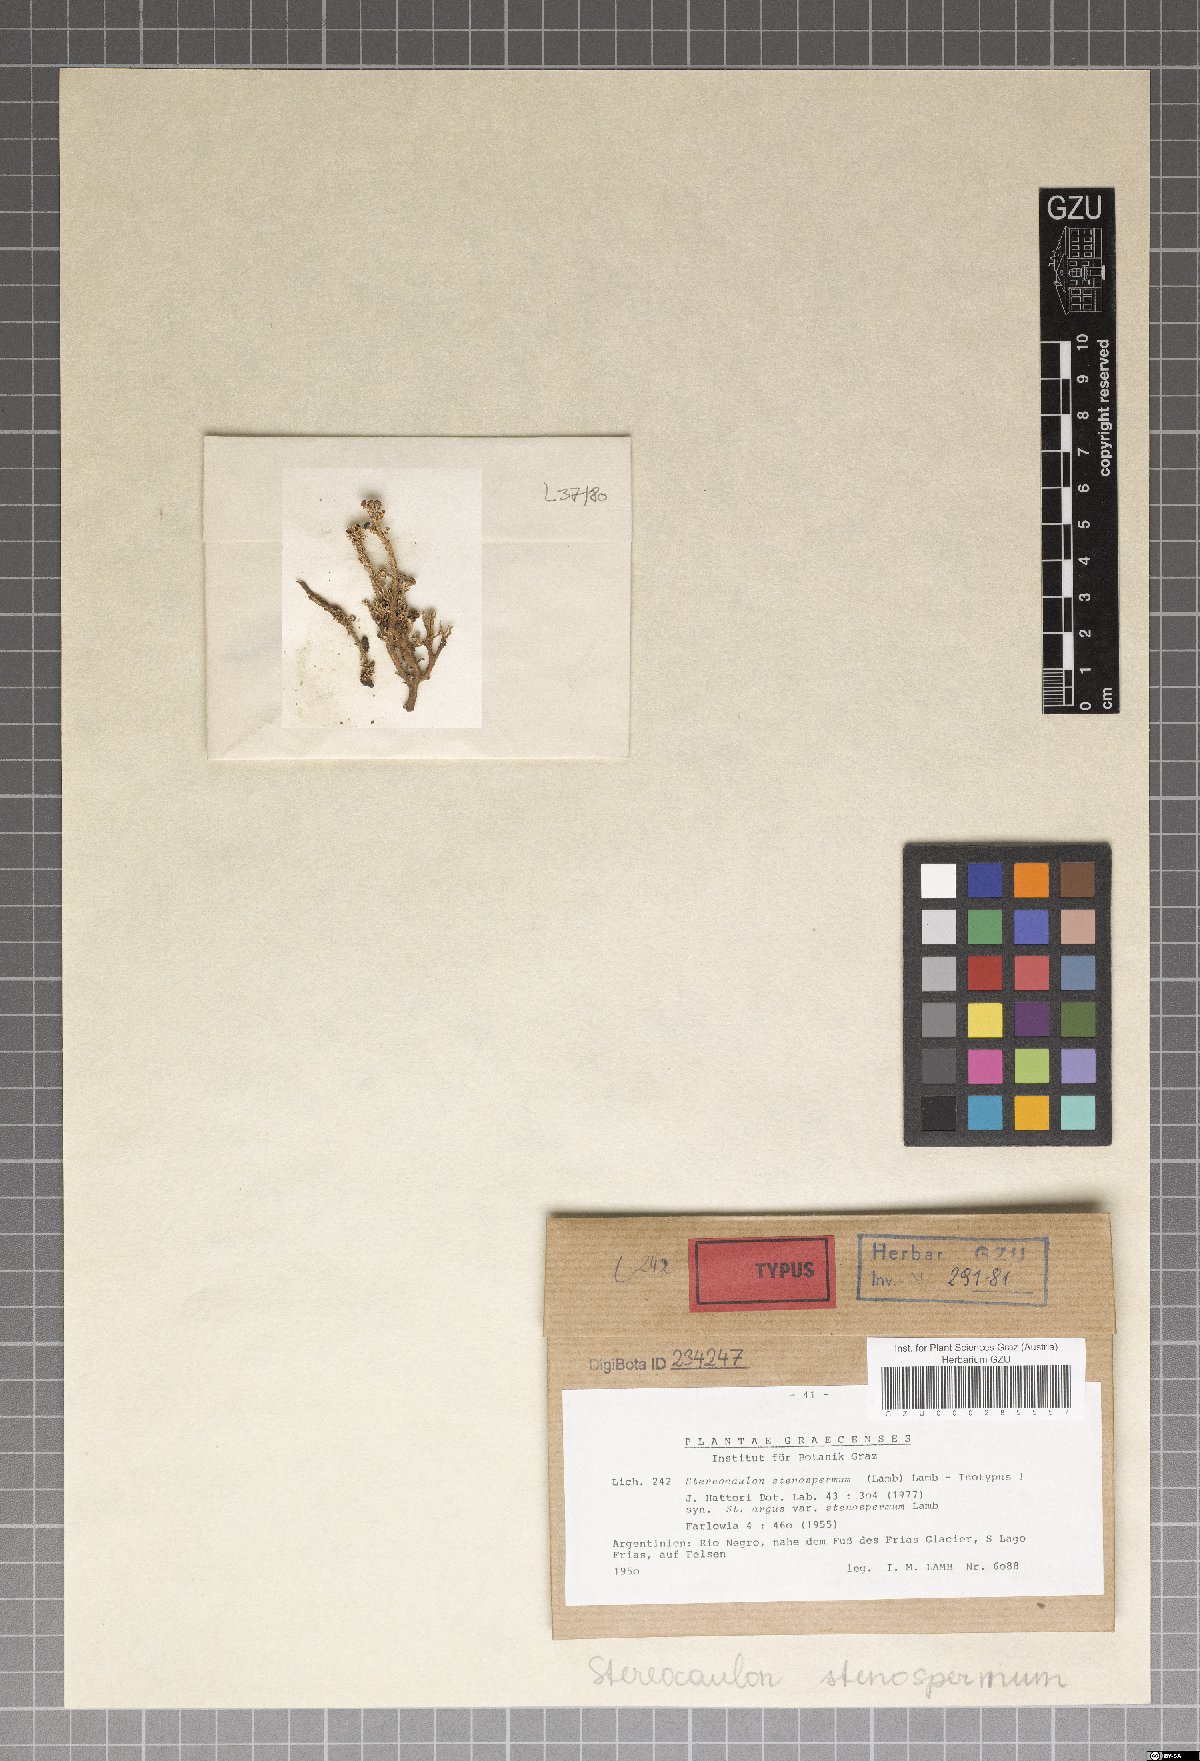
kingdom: Fungi
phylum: Ascomycota
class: Lecanoromycetes
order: Lecanorales
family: Stereocaulaceae
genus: Stereocaulon
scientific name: Stereocaulon argus
